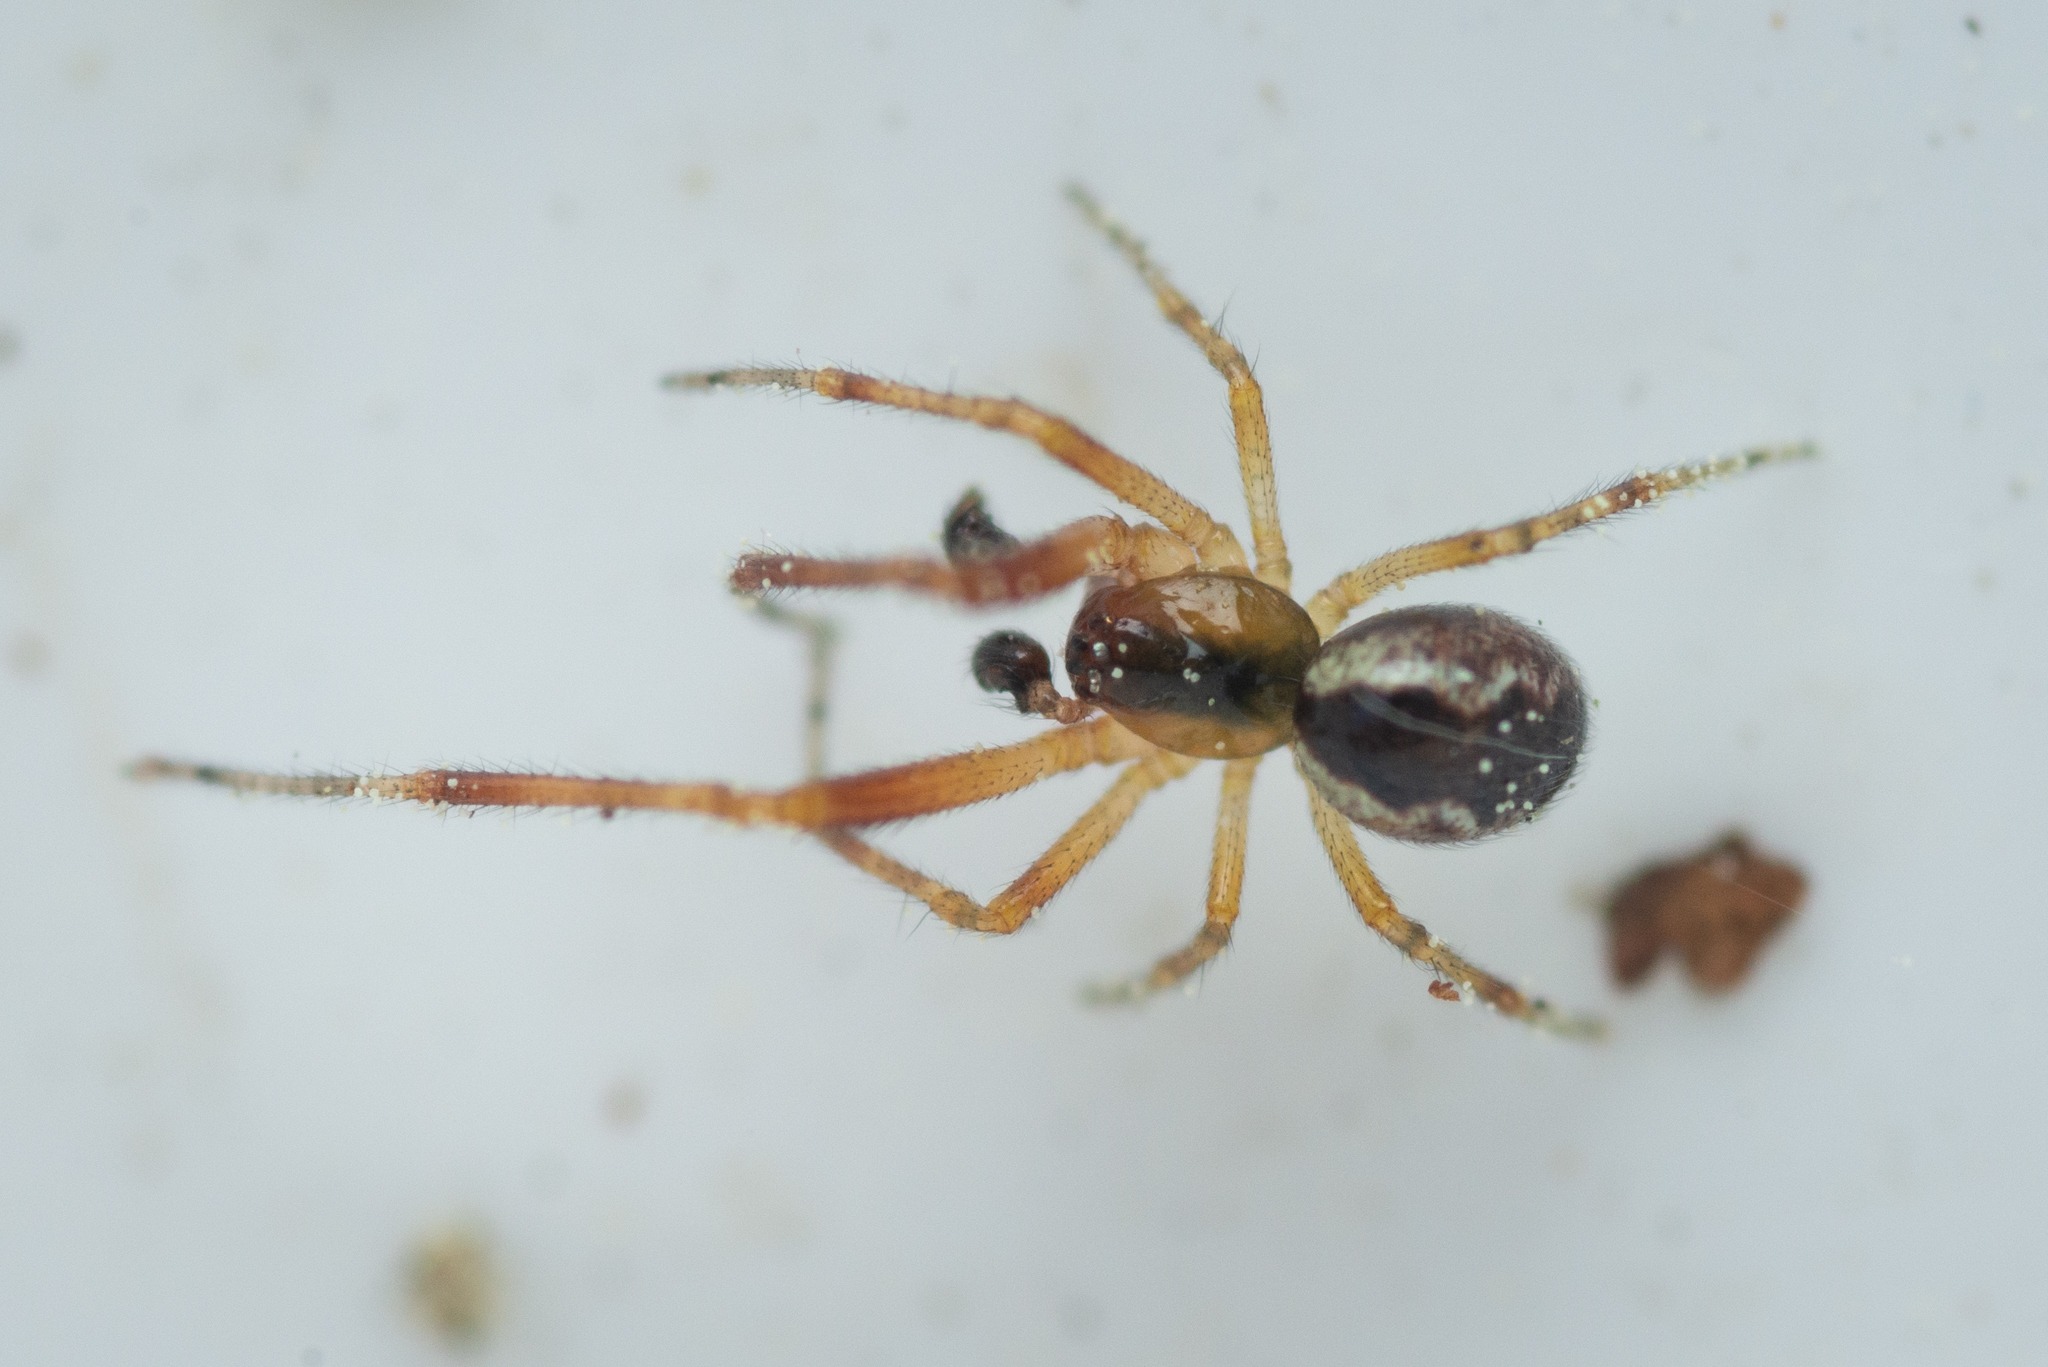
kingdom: Animalia
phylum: Arthropoda
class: Arachnida
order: Araneae
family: Theridiidae
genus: Anelosimus
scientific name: Anelosimus vittatus
